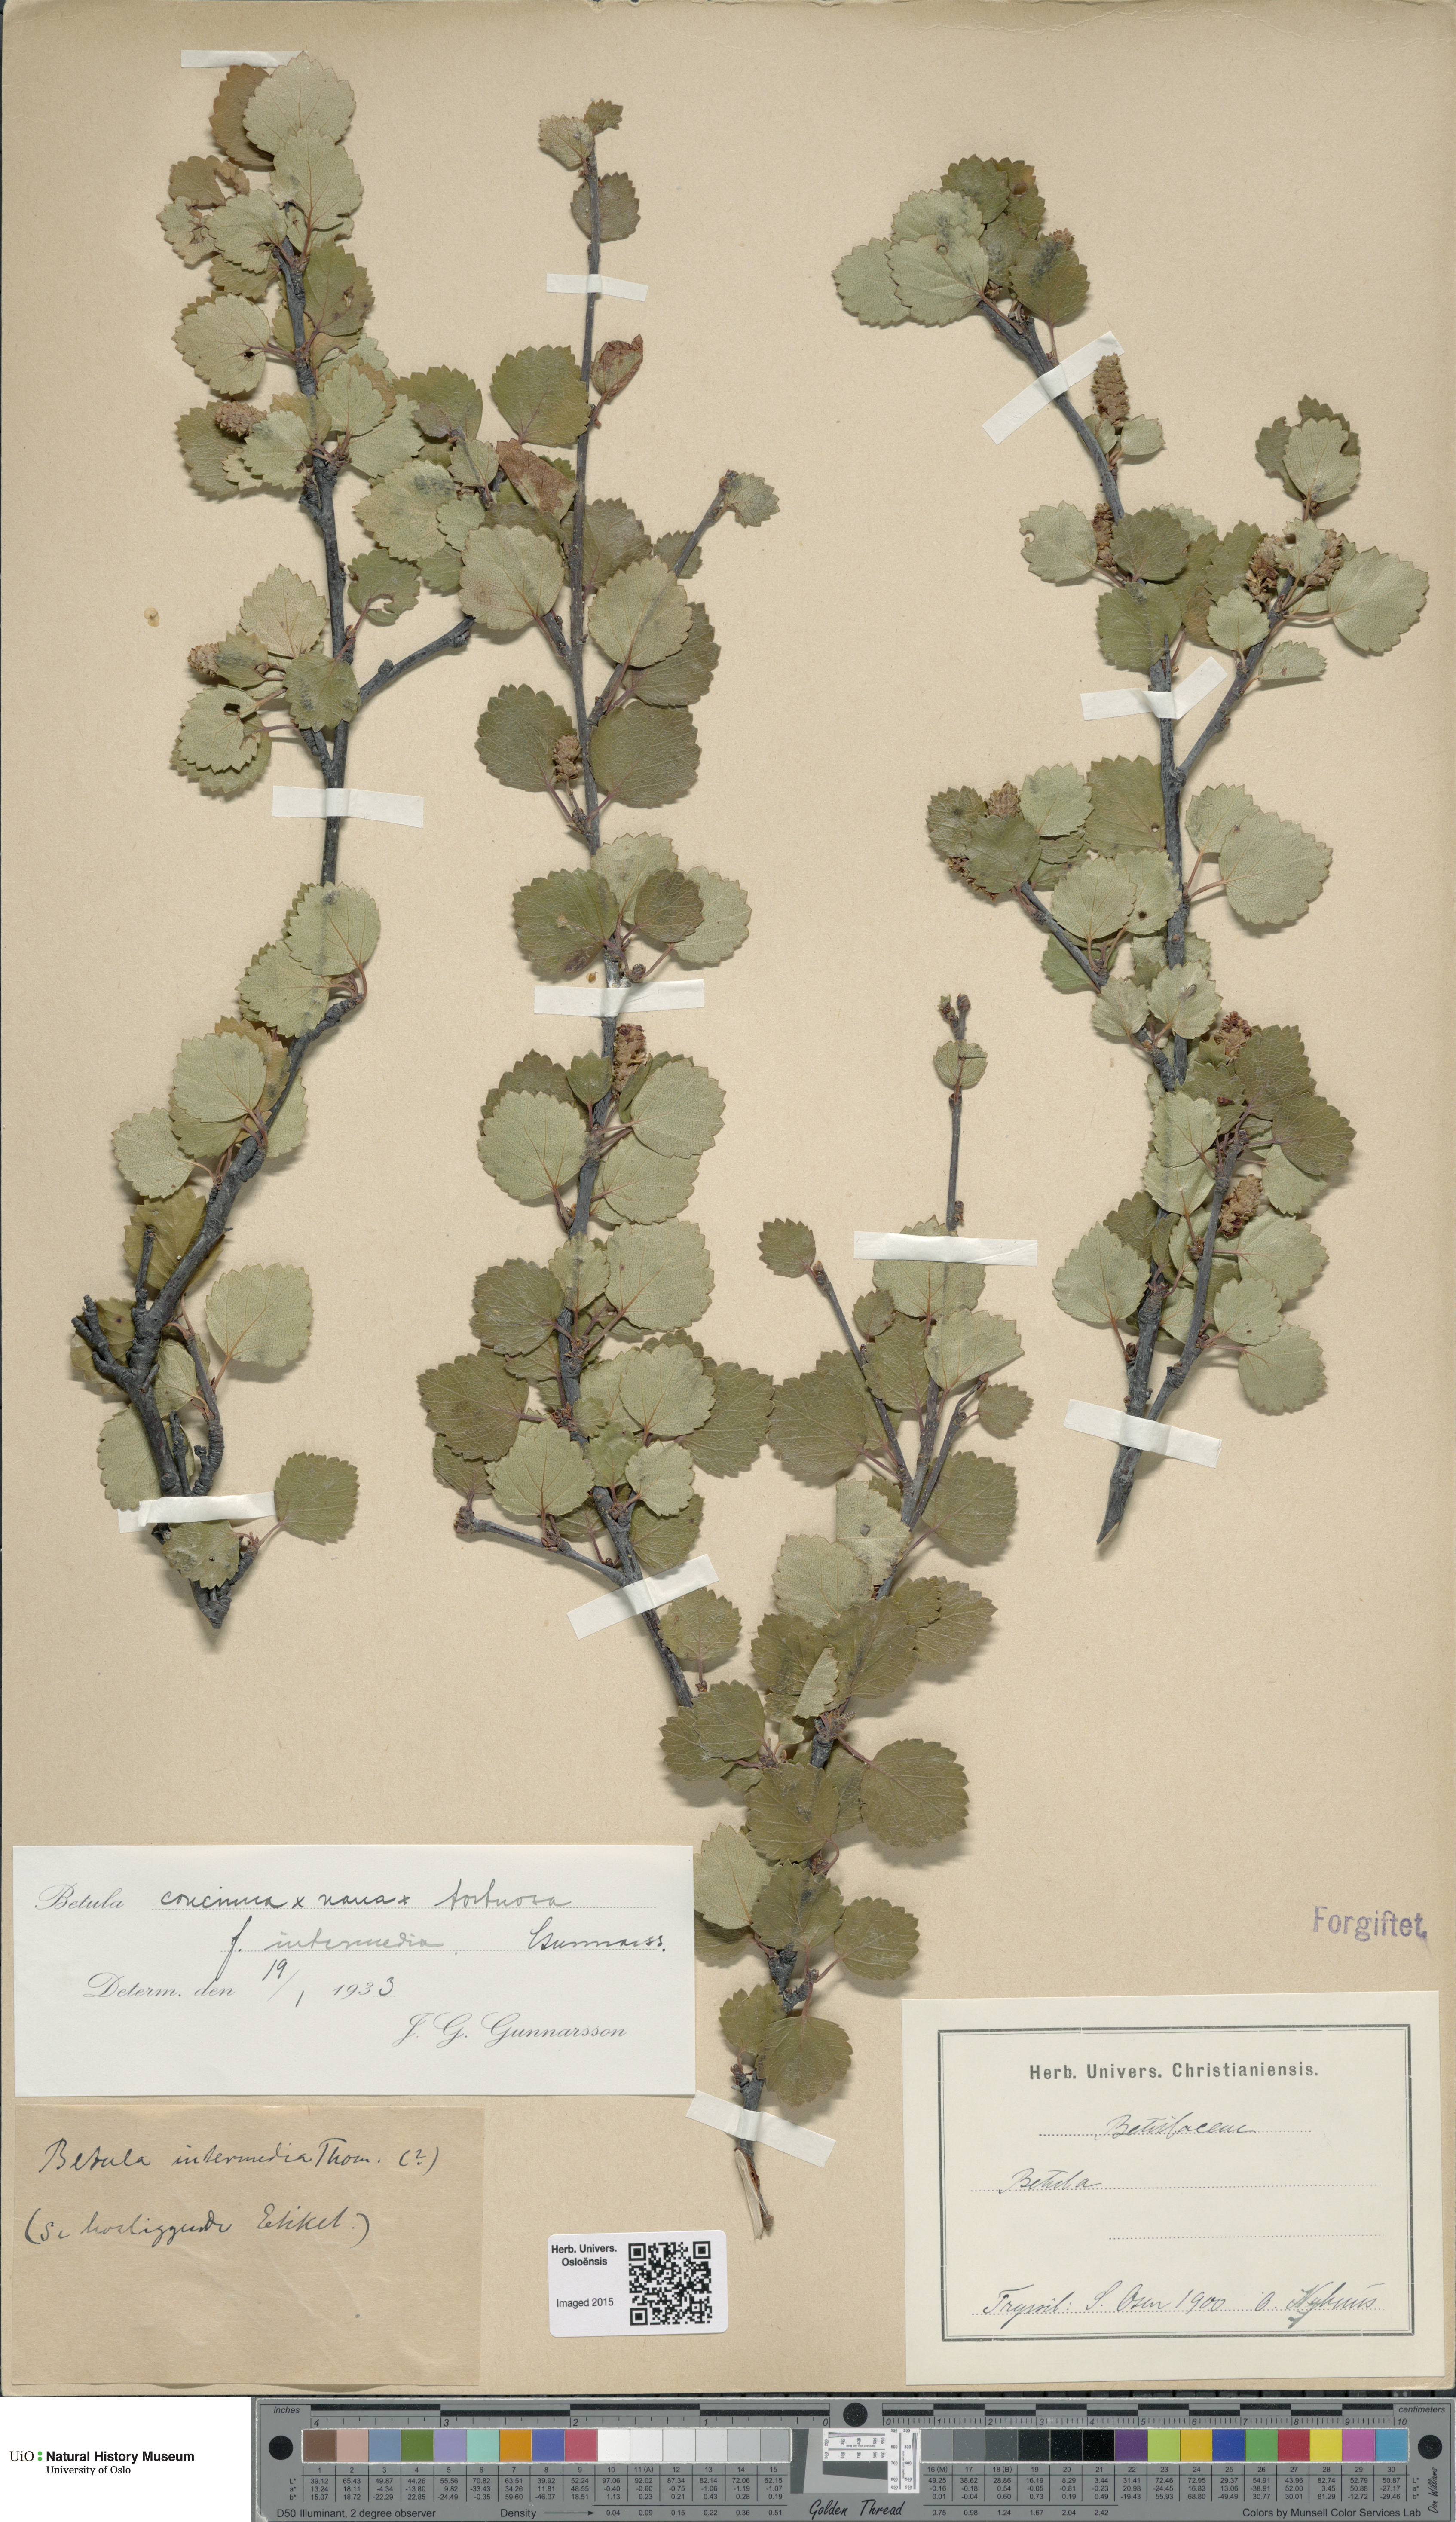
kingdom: Plantae
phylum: Tracheophyta
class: Magnoliopsida
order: Fagales
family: Betulaceae
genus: Betula
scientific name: Betula pubescens
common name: Downy birch
